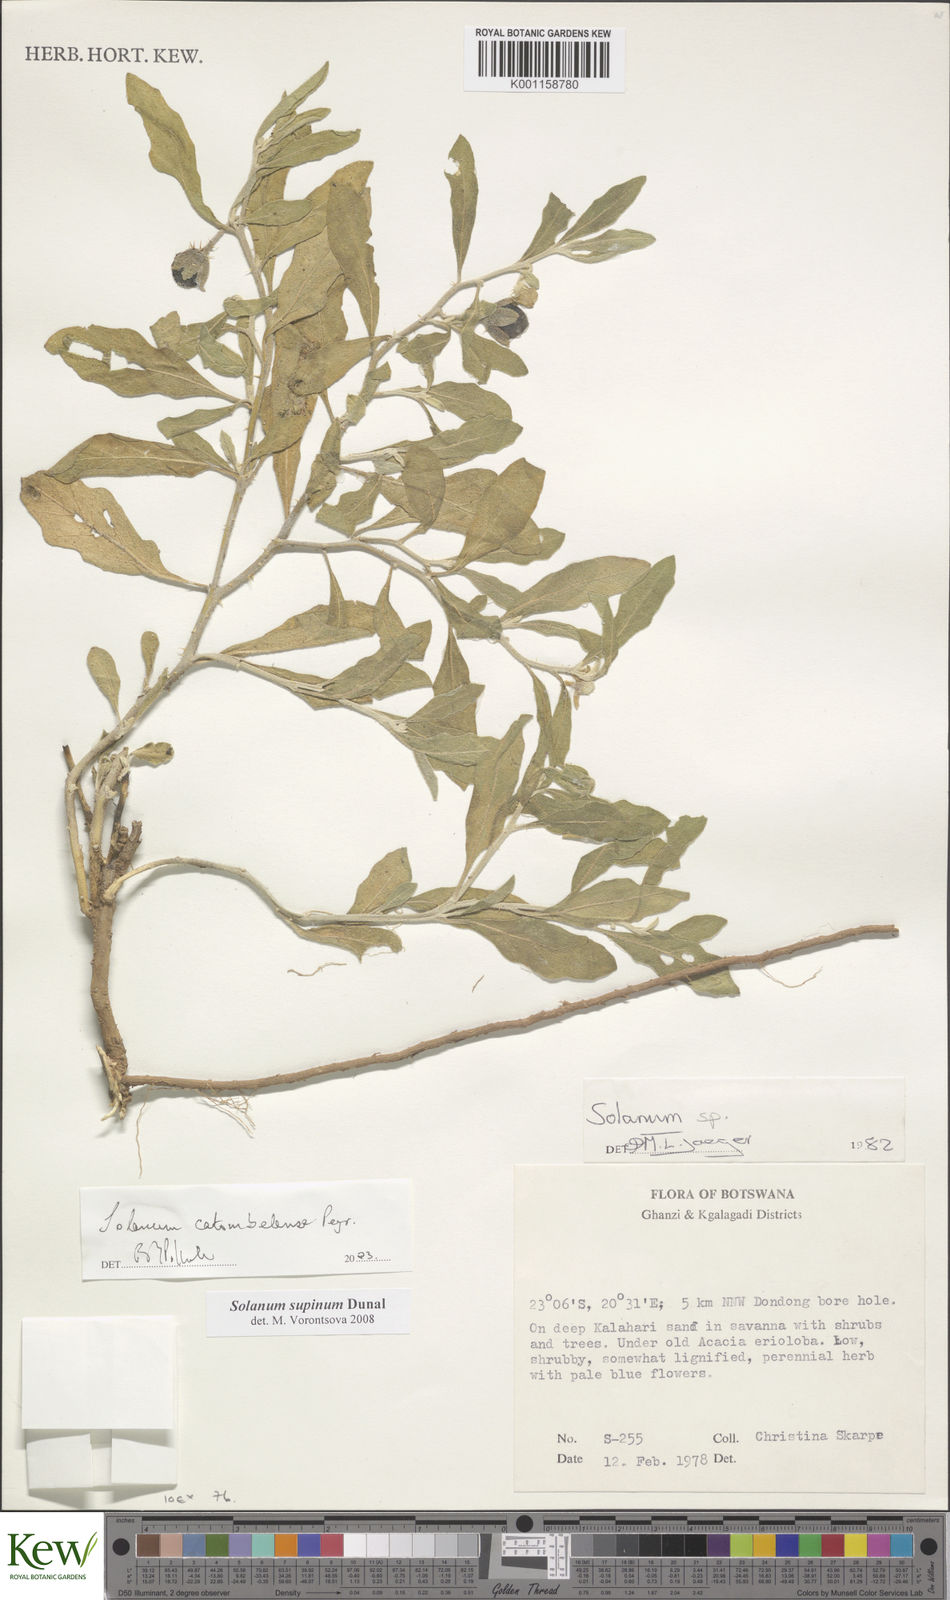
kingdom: Plantae
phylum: Tracheophyta
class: Magnoliopsida
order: Solanales
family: Solanaceae
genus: Solanum
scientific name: Solanum supinum
